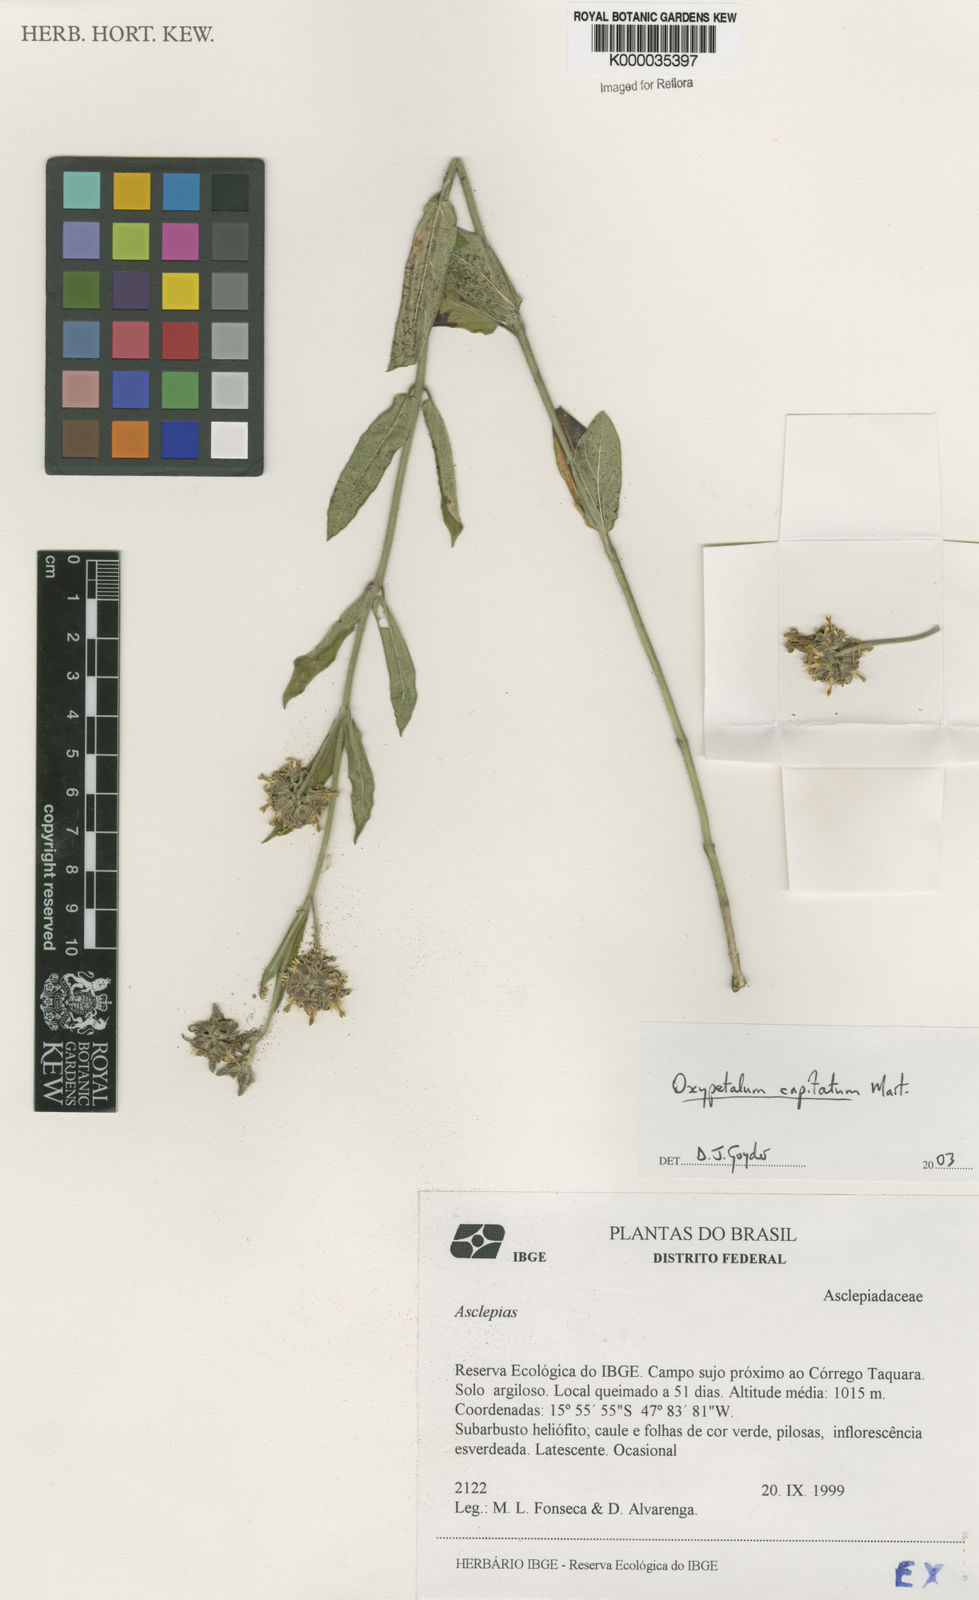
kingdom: Plantae
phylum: Tracheophyta
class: Magnoliopsida
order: Gentianales
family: Apocynaceae
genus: Oxypetalum
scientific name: Oxypetalum capitatum
